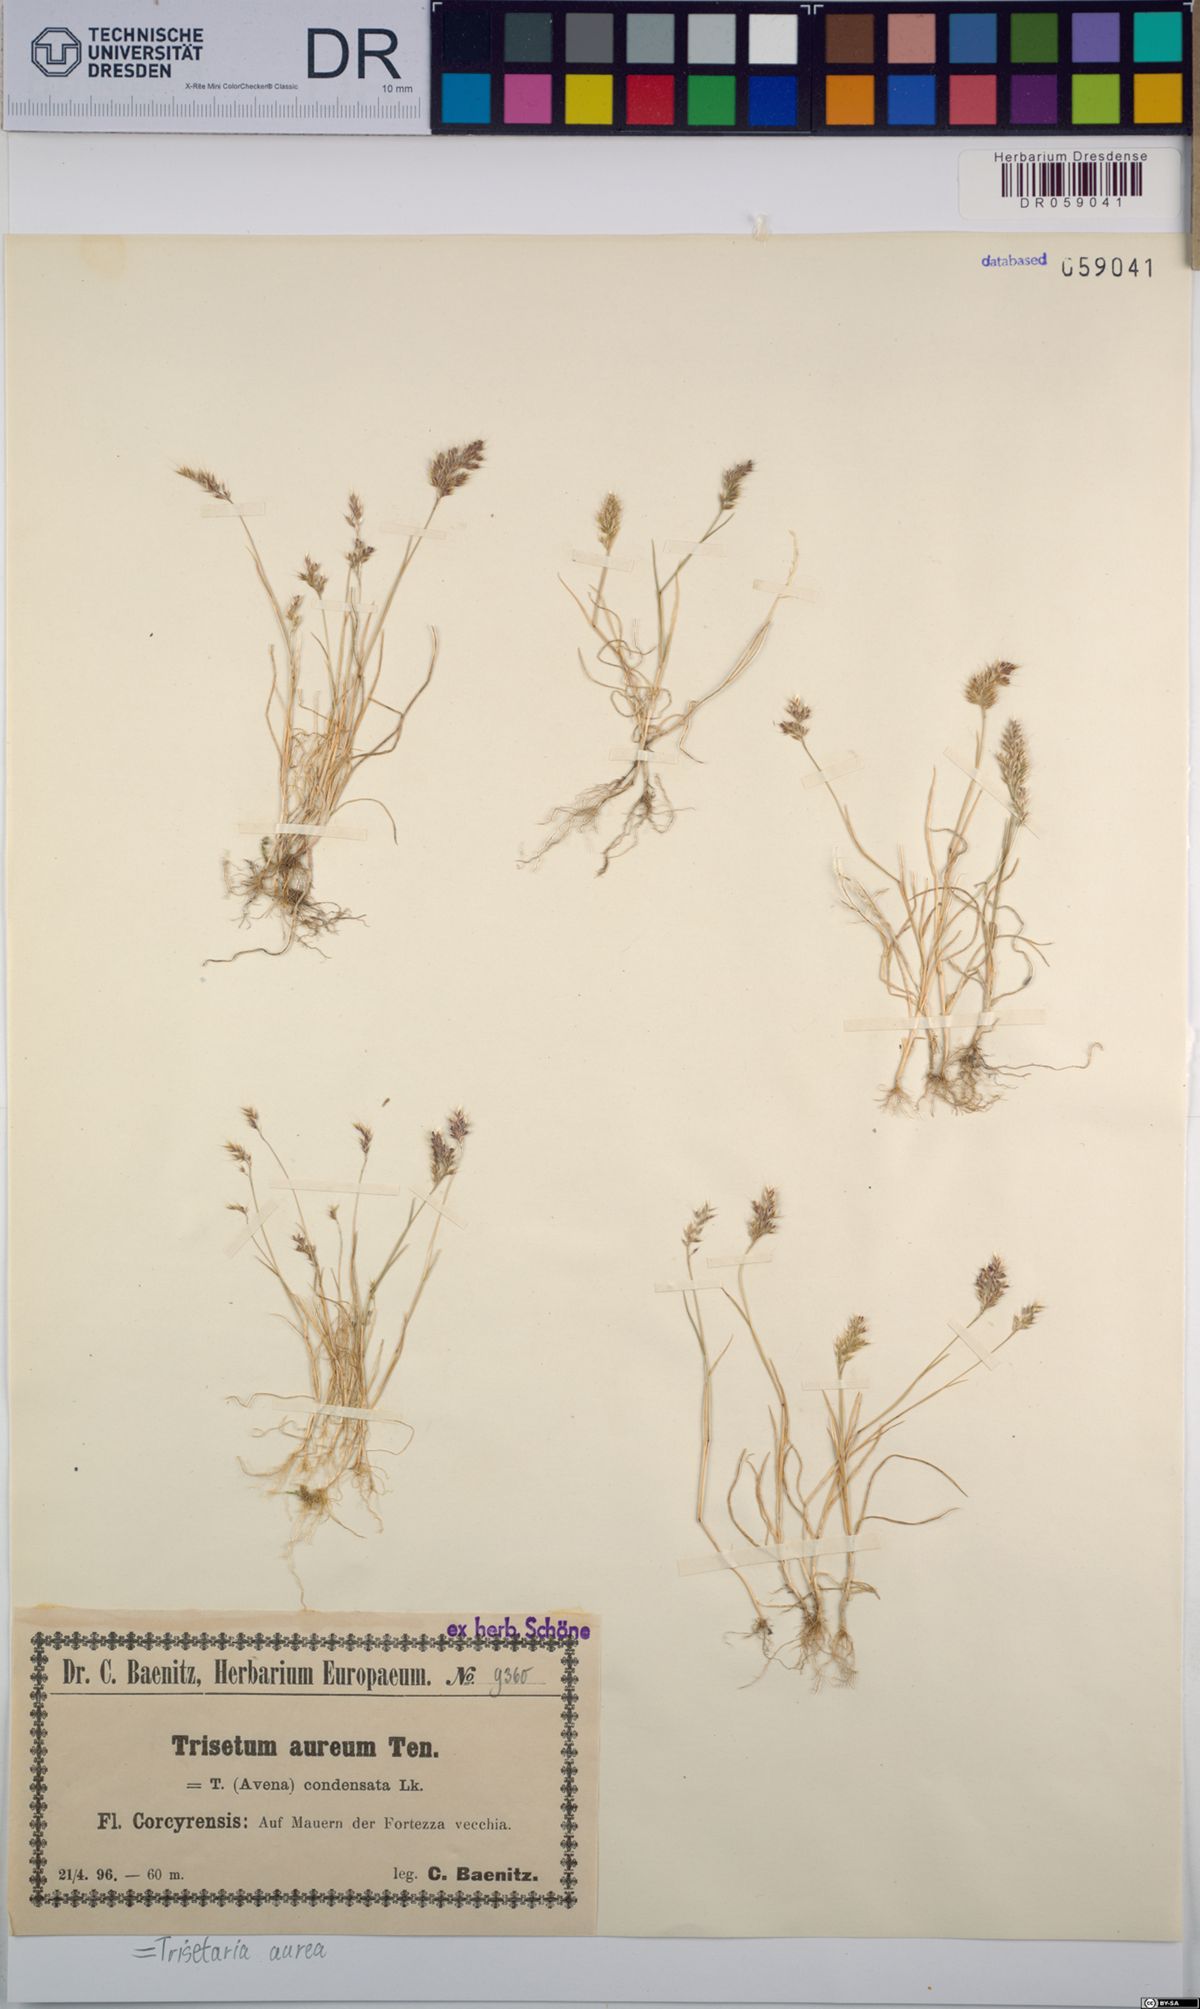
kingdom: Plantae
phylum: Tracheophyta
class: Liliopsida
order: Poales
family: Poaceae
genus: Trisetaria
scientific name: Trisetaria aurea
